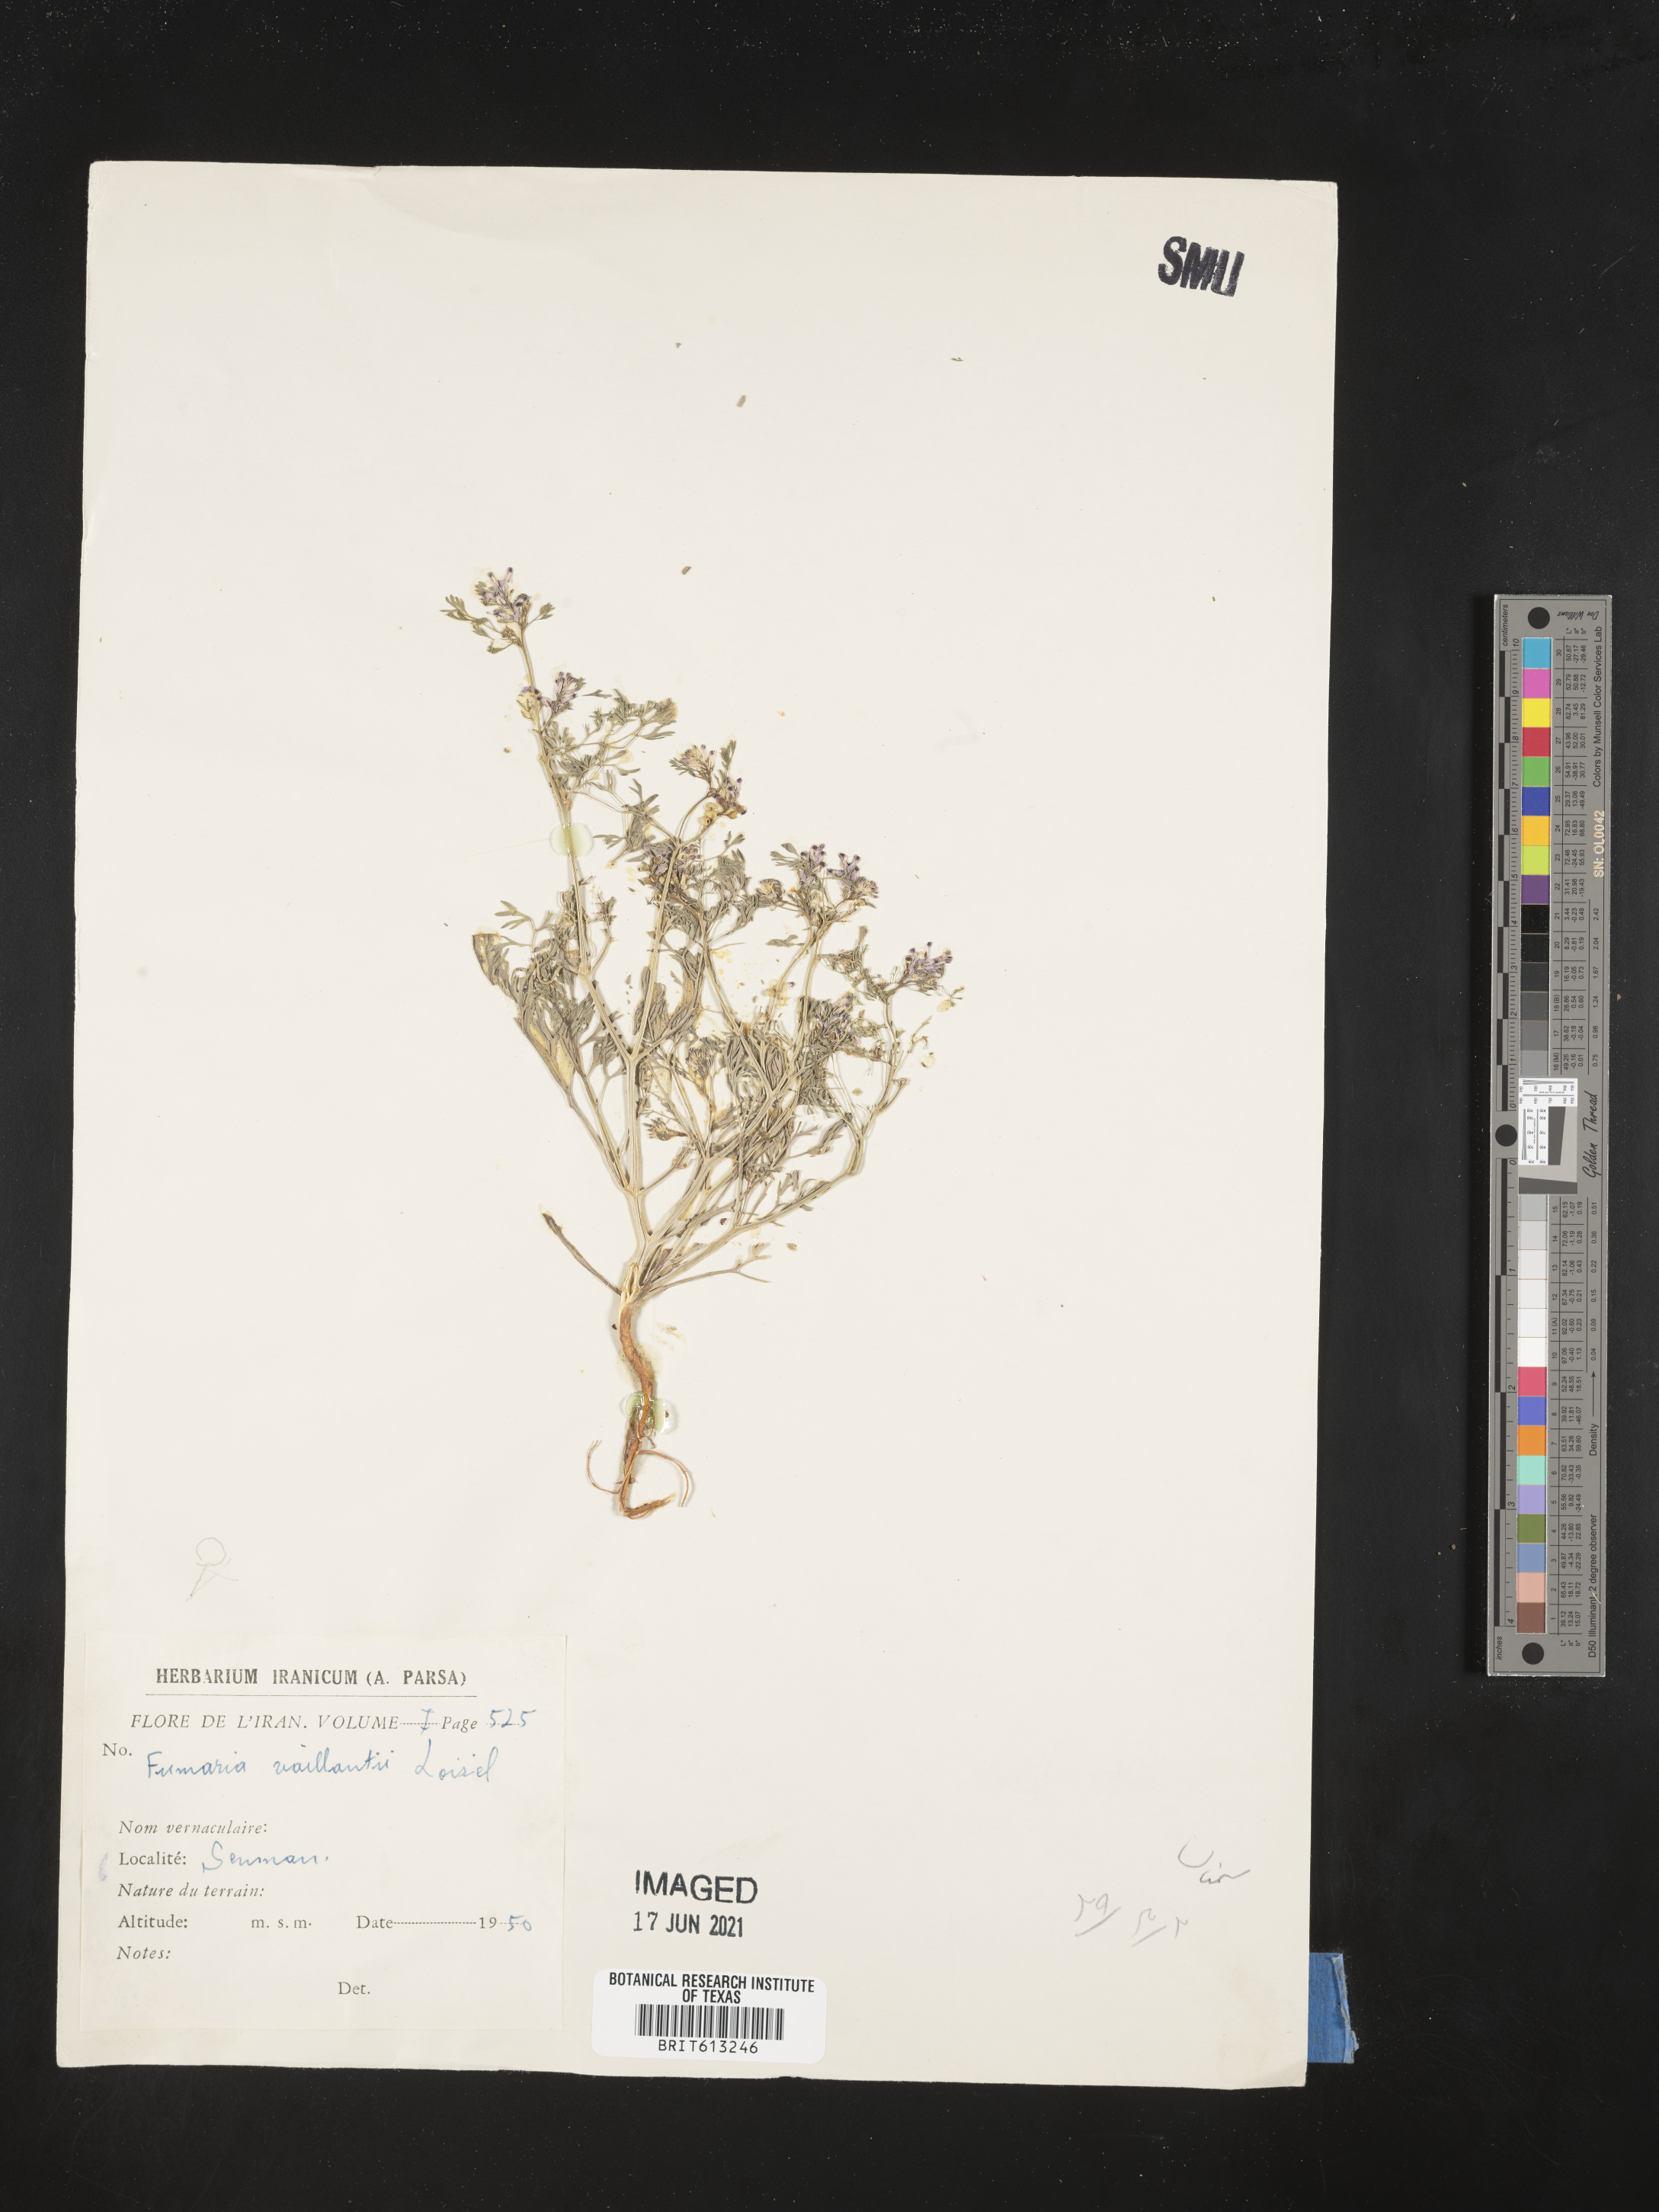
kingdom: Plantae
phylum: Tracheophyta
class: Magnoliopsida
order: Ranunculales
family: Papaveraceae
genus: Fumaria
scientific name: Fumaria vaillantii
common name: Few-flowered fumitory
